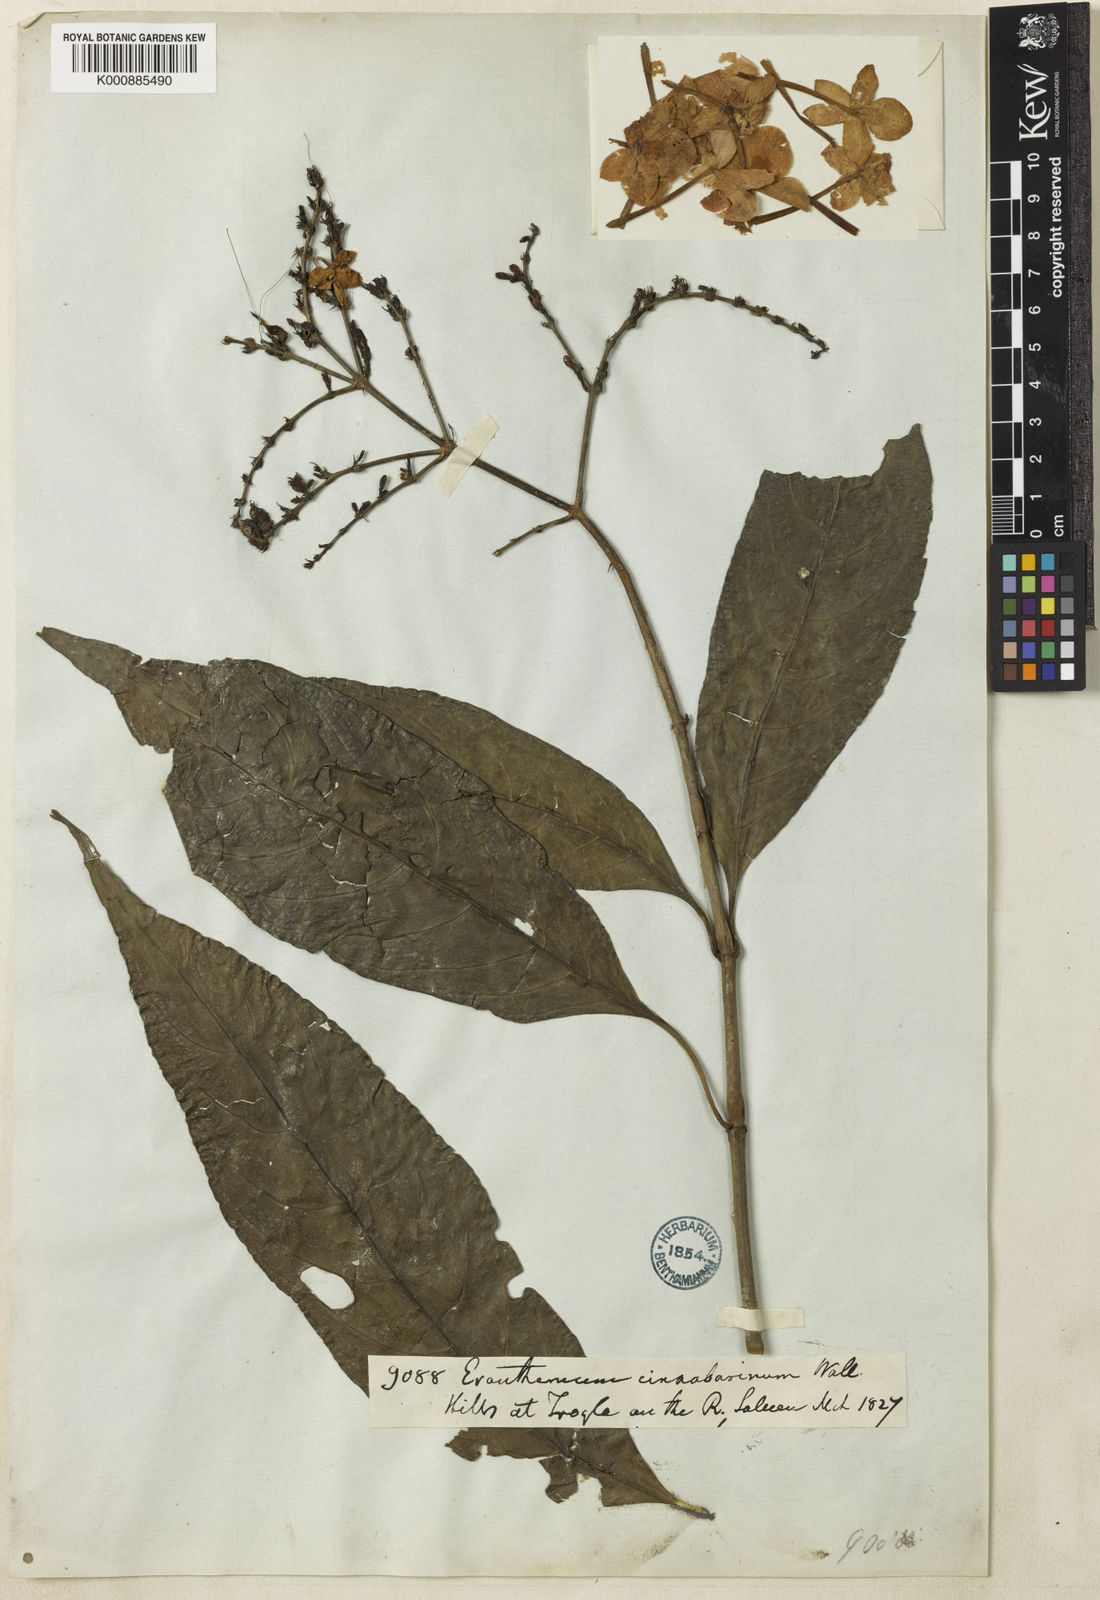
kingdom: Plantae
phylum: Tracheophyta
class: Magnoliopsida
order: Lamiales
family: Acanthaceae
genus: Pseuderanthemum
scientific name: Pseuderanthemum cinnabarinum
